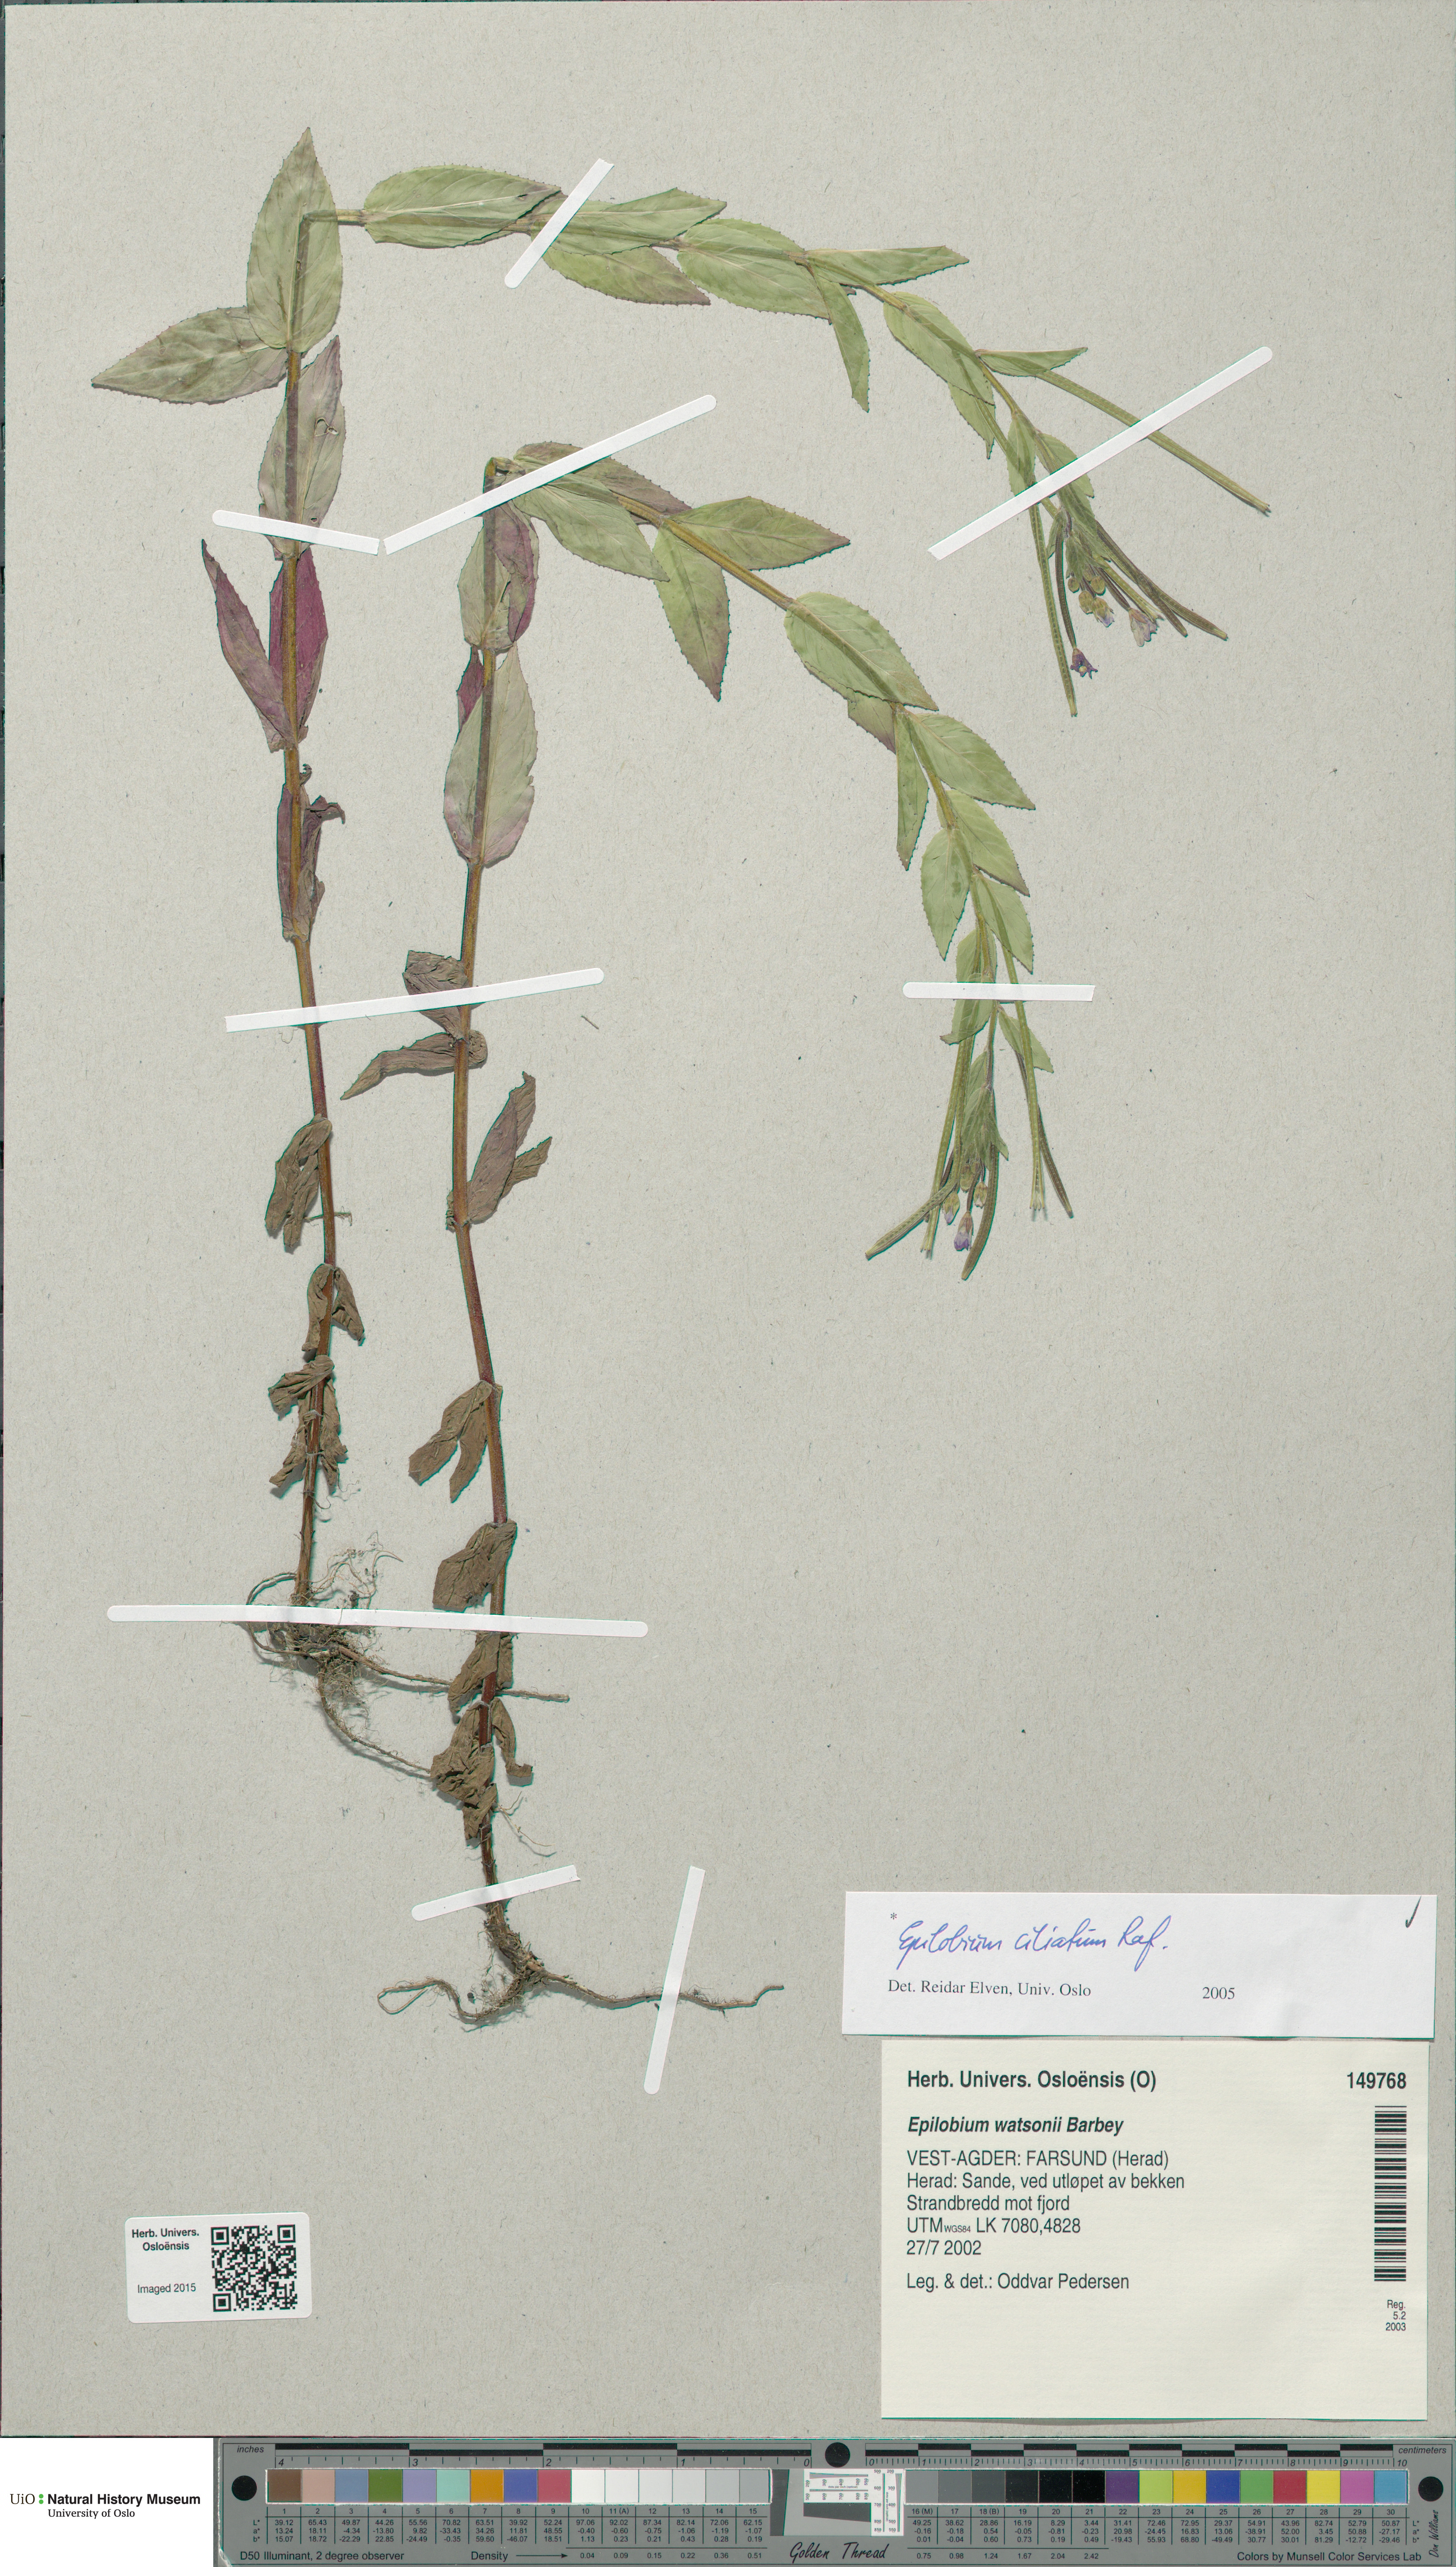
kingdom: Plantae
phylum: Tracheophyta
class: Magnoliopsida
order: Myrtales
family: Onagraceae
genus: Epilobium
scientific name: Epilobium ciliatum
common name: American willowherb
